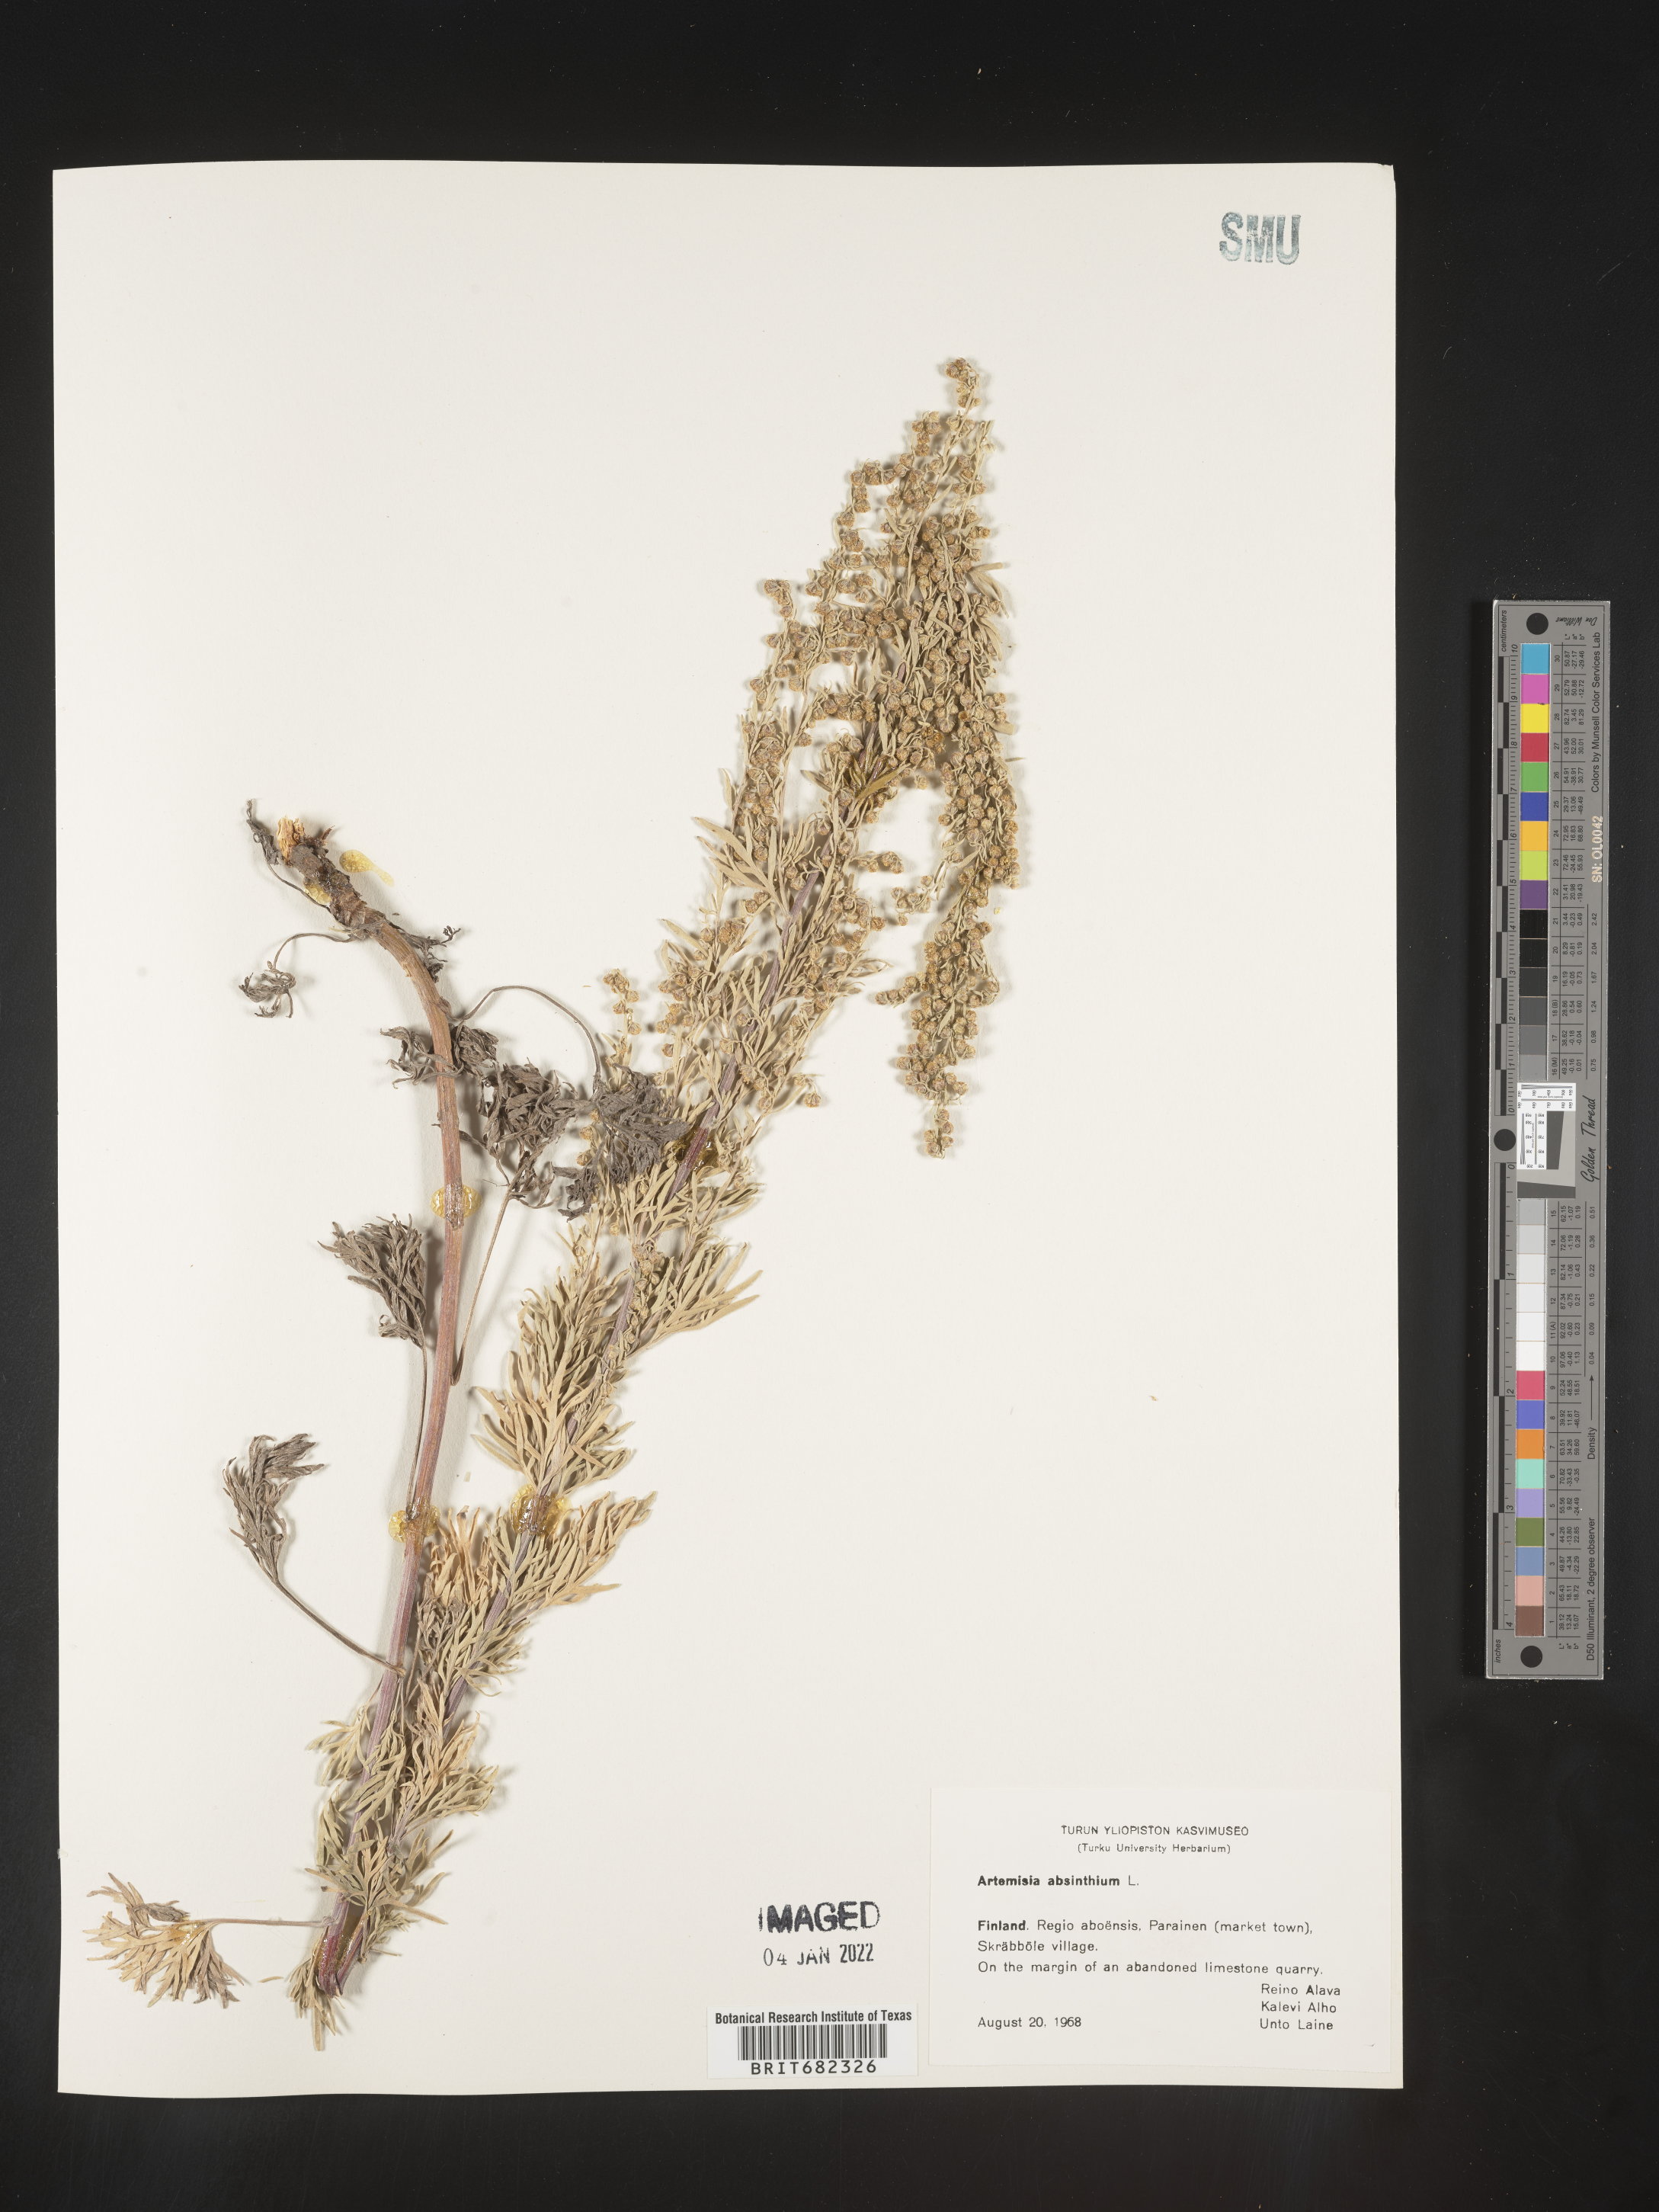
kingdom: Plantae
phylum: Tracheophyta
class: Magnoliopsida
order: Asterales
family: Asteraceae
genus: Artemisia
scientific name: Artemisia
